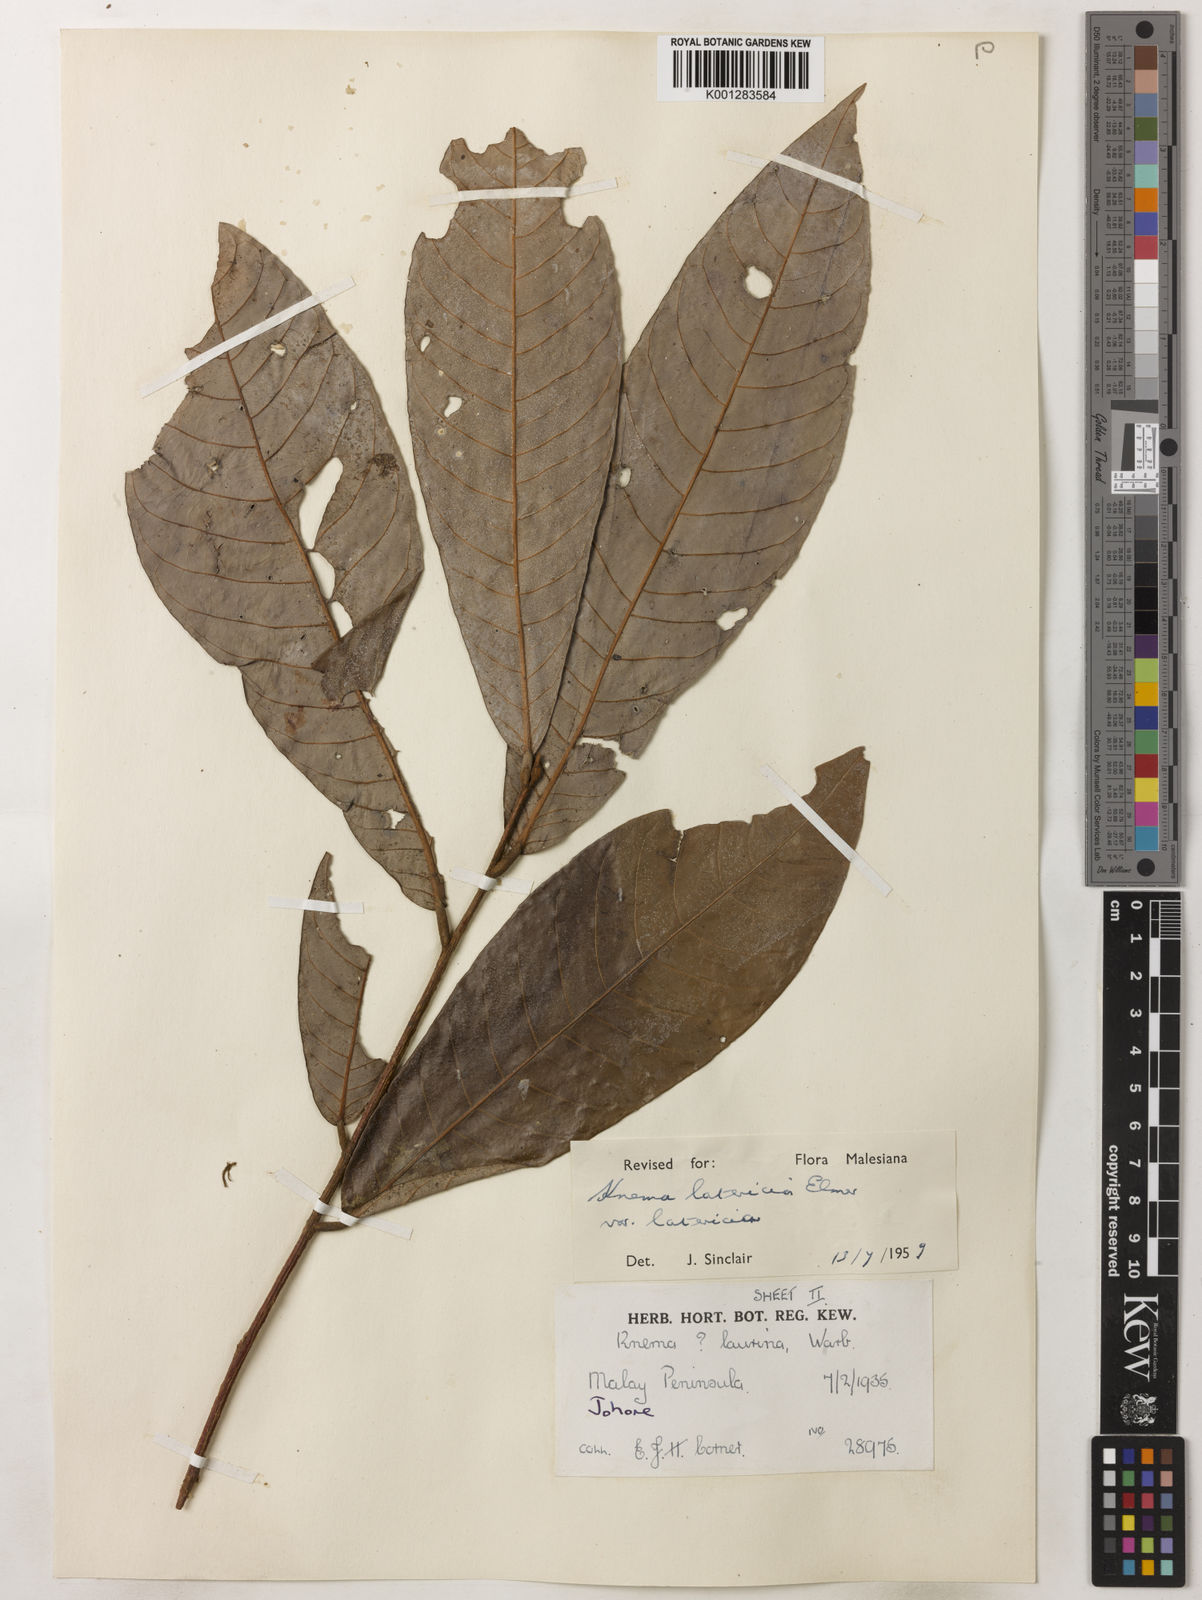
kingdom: Plantae
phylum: Tracheophyta
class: Magnoliopsida
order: Magnoliales
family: Myristicaceae
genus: Knema
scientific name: Knema latericia
